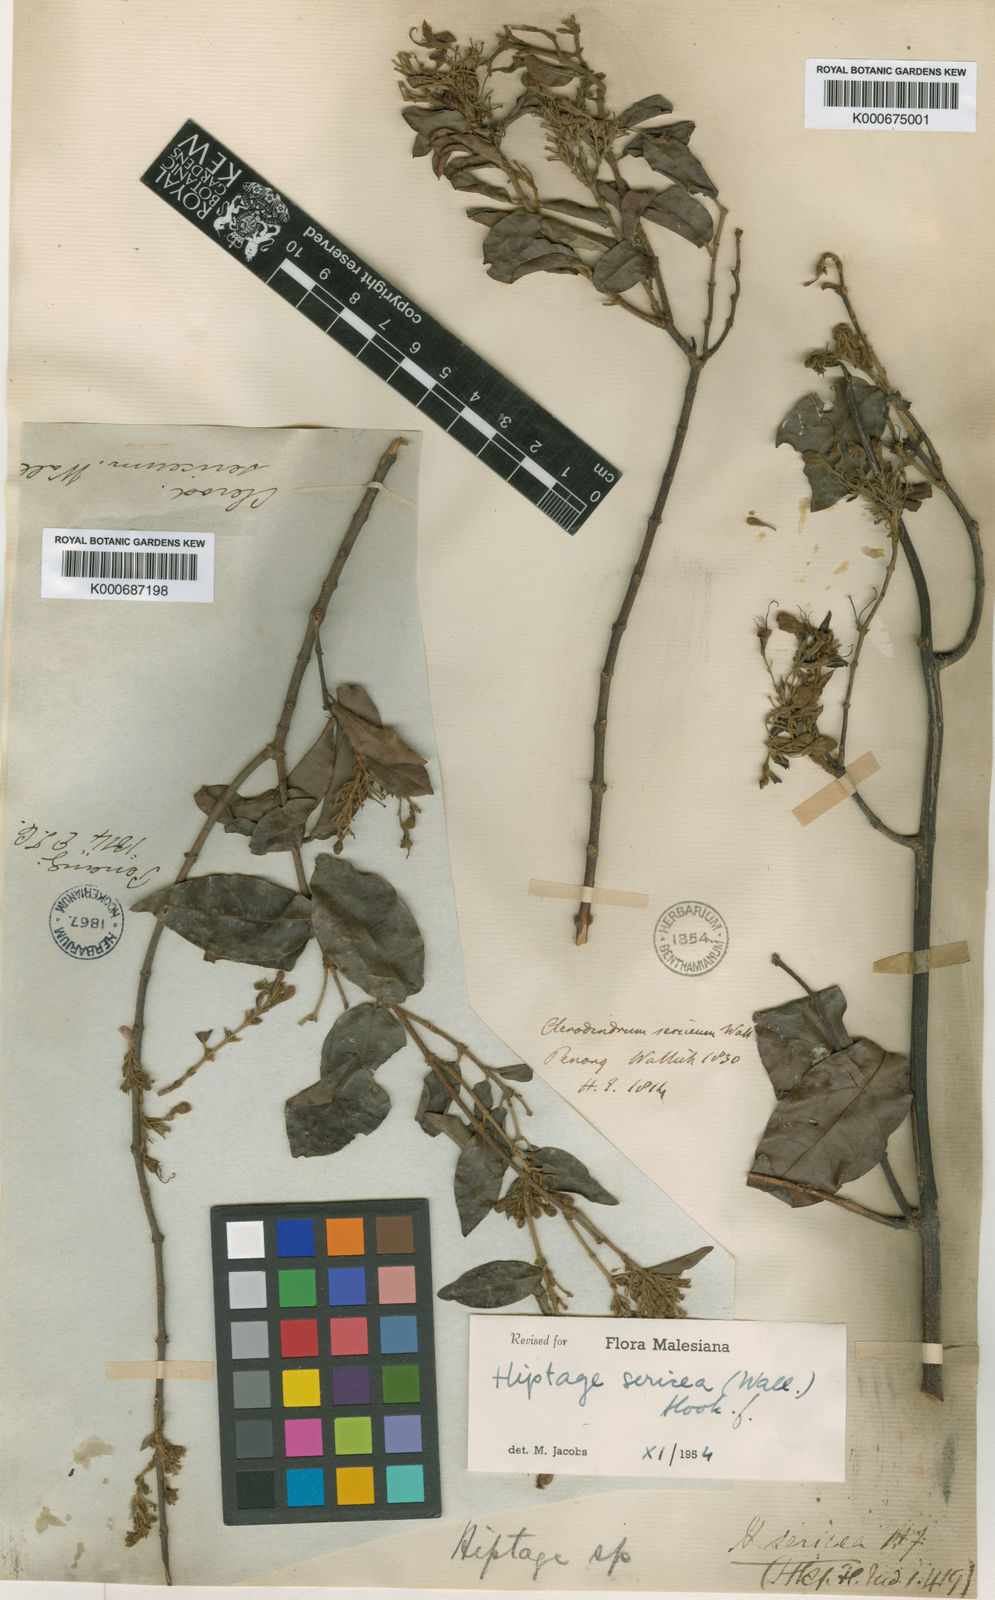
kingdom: Plantae
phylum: Tracheophyta
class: Magnoliopsida
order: Malpighiales
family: Malpighiaceae
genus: Hiptage
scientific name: Hiptage sericea
